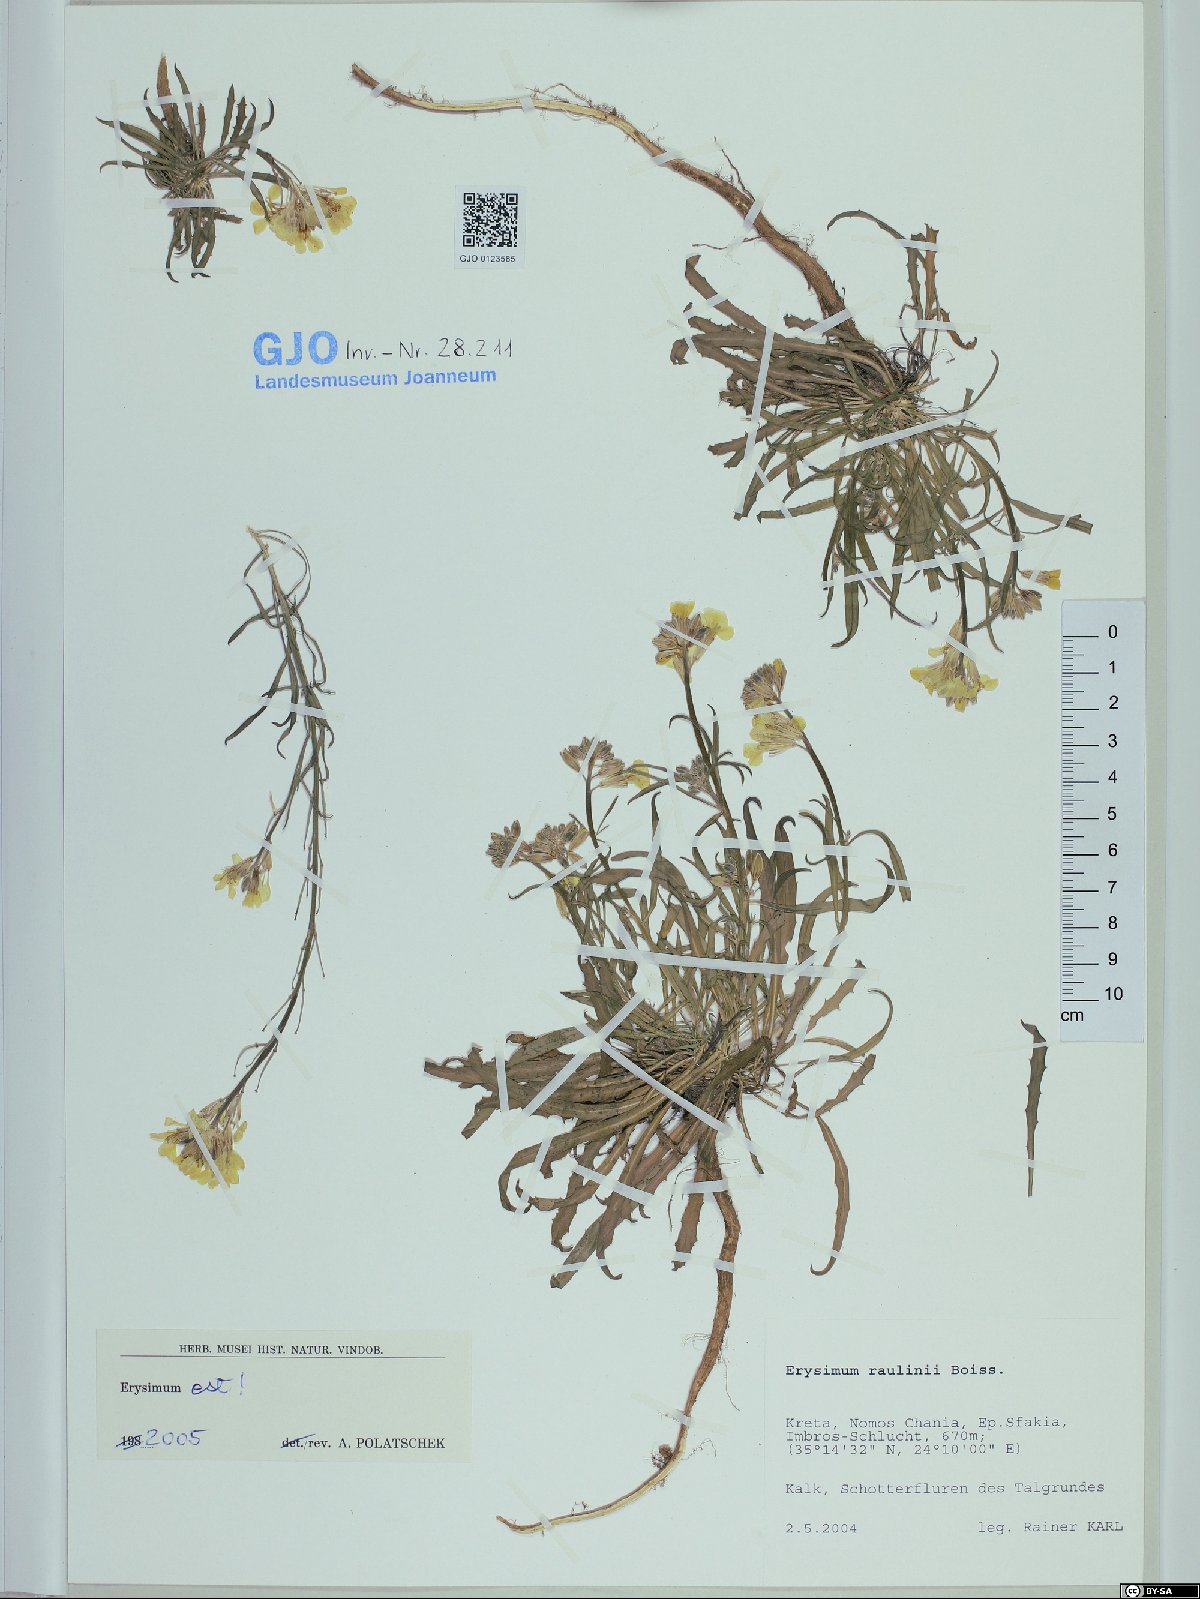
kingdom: Plantae
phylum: Tracheophyta
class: Magnoliopsida
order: Brassicales
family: Brassicaceae
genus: Erysimum
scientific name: Erysimum raulinii
